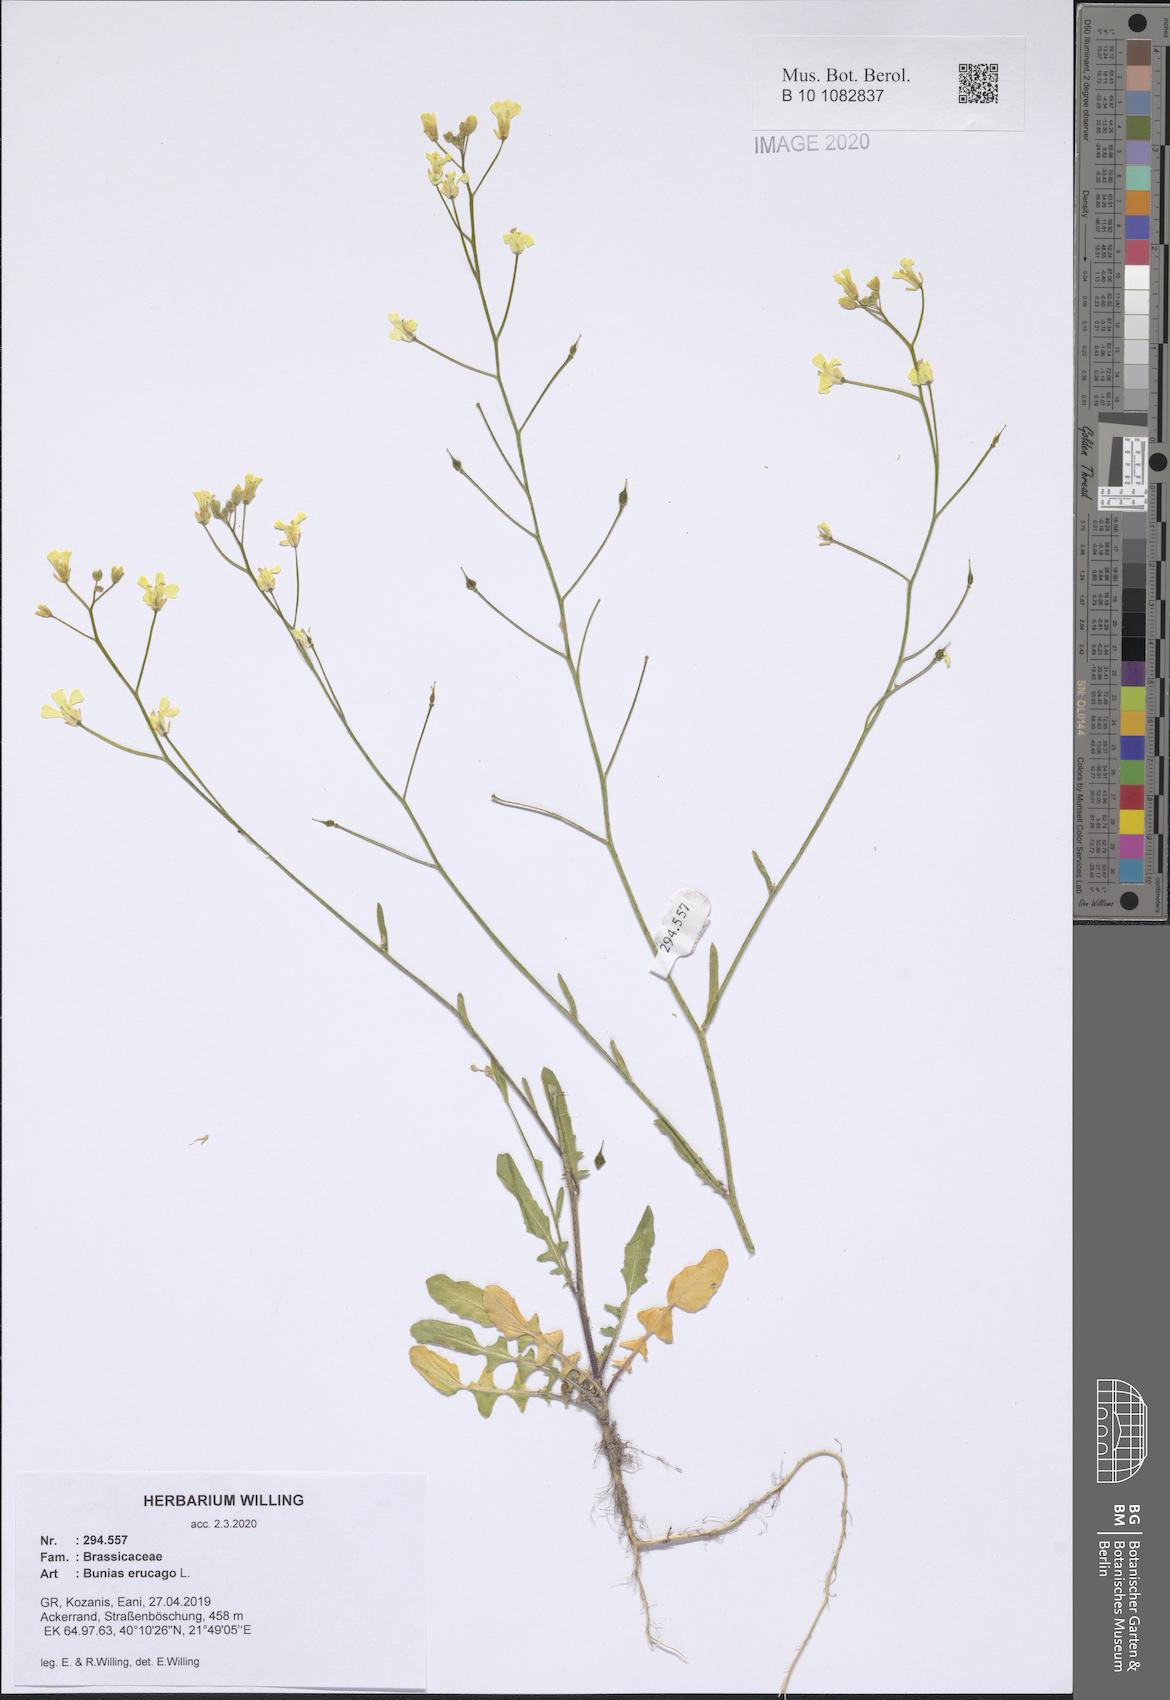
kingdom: Plantae
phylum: Tracheophyta
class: Magnoliopsida
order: Brassicales
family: Brassicaceae
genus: Bunias
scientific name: Bunias erucago
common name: Southern warty-cabbage
